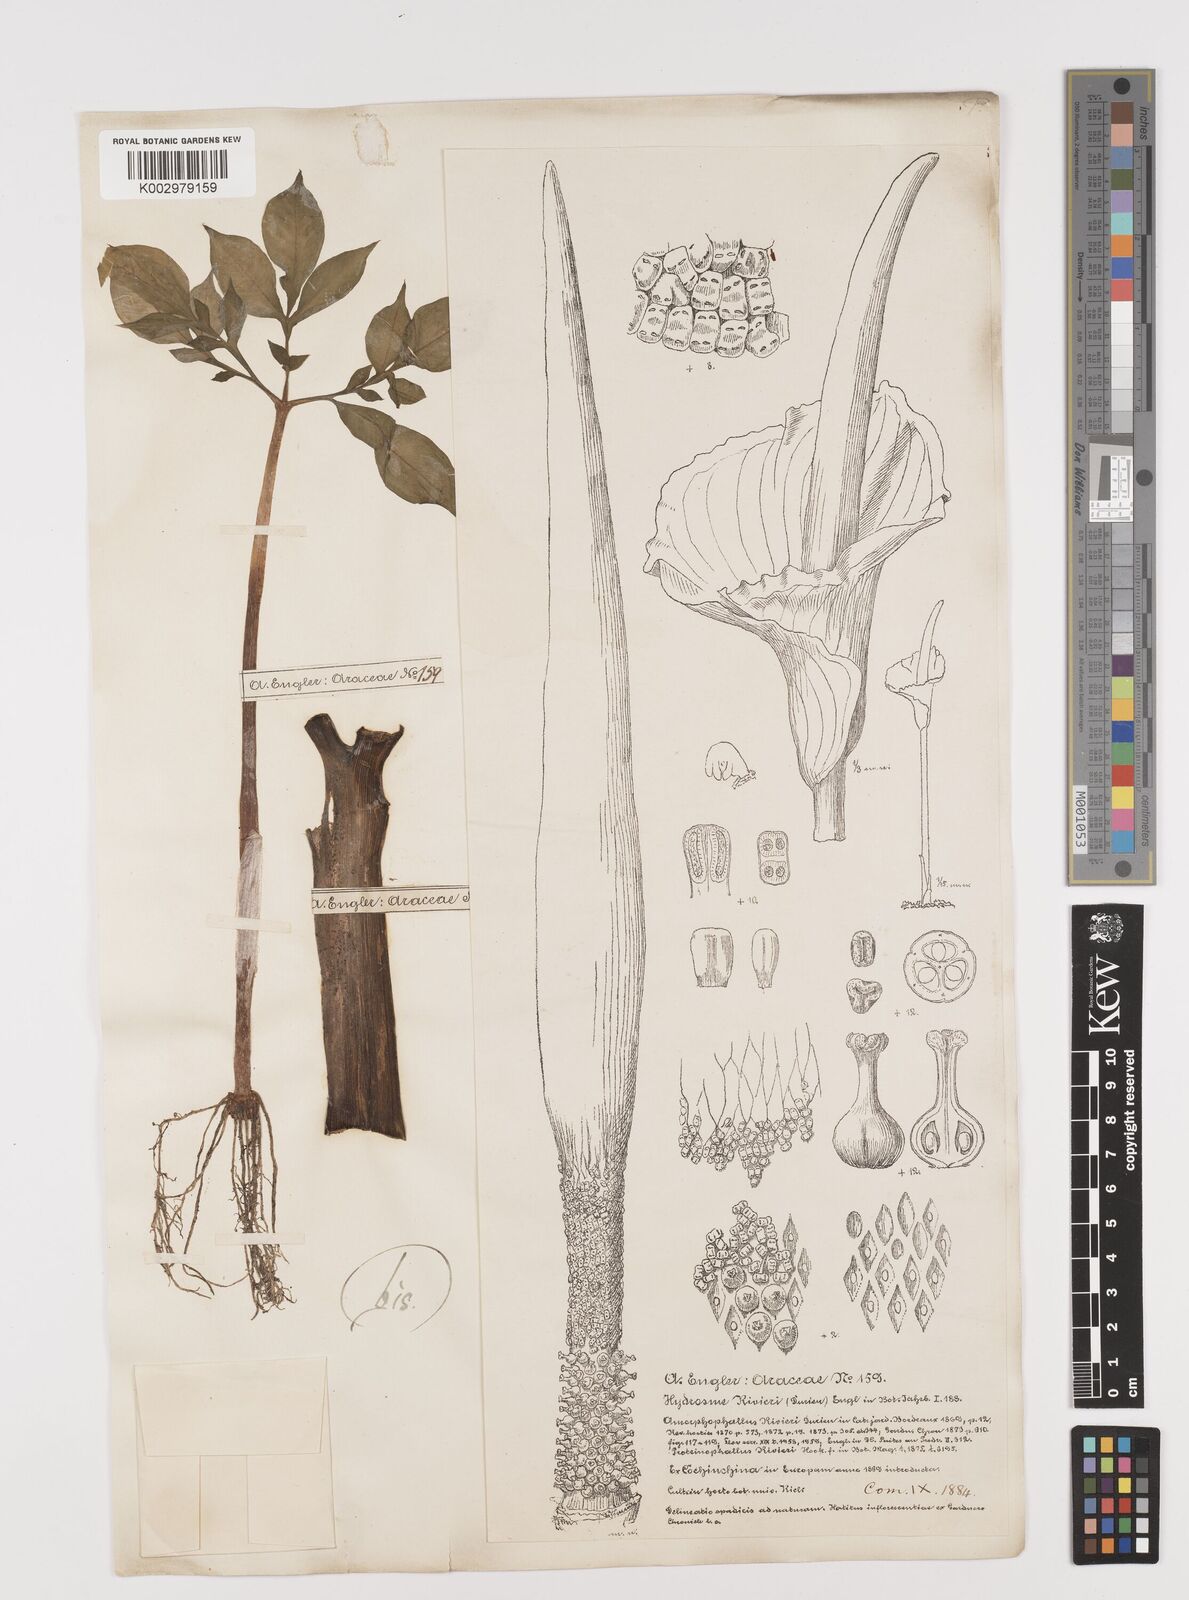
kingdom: Plantae
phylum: Tracheophyta
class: Liliopsida
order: Alismatales
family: Araceae
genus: Amorphophallus
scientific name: Amorphophallus konjac
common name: Umbrella arum
